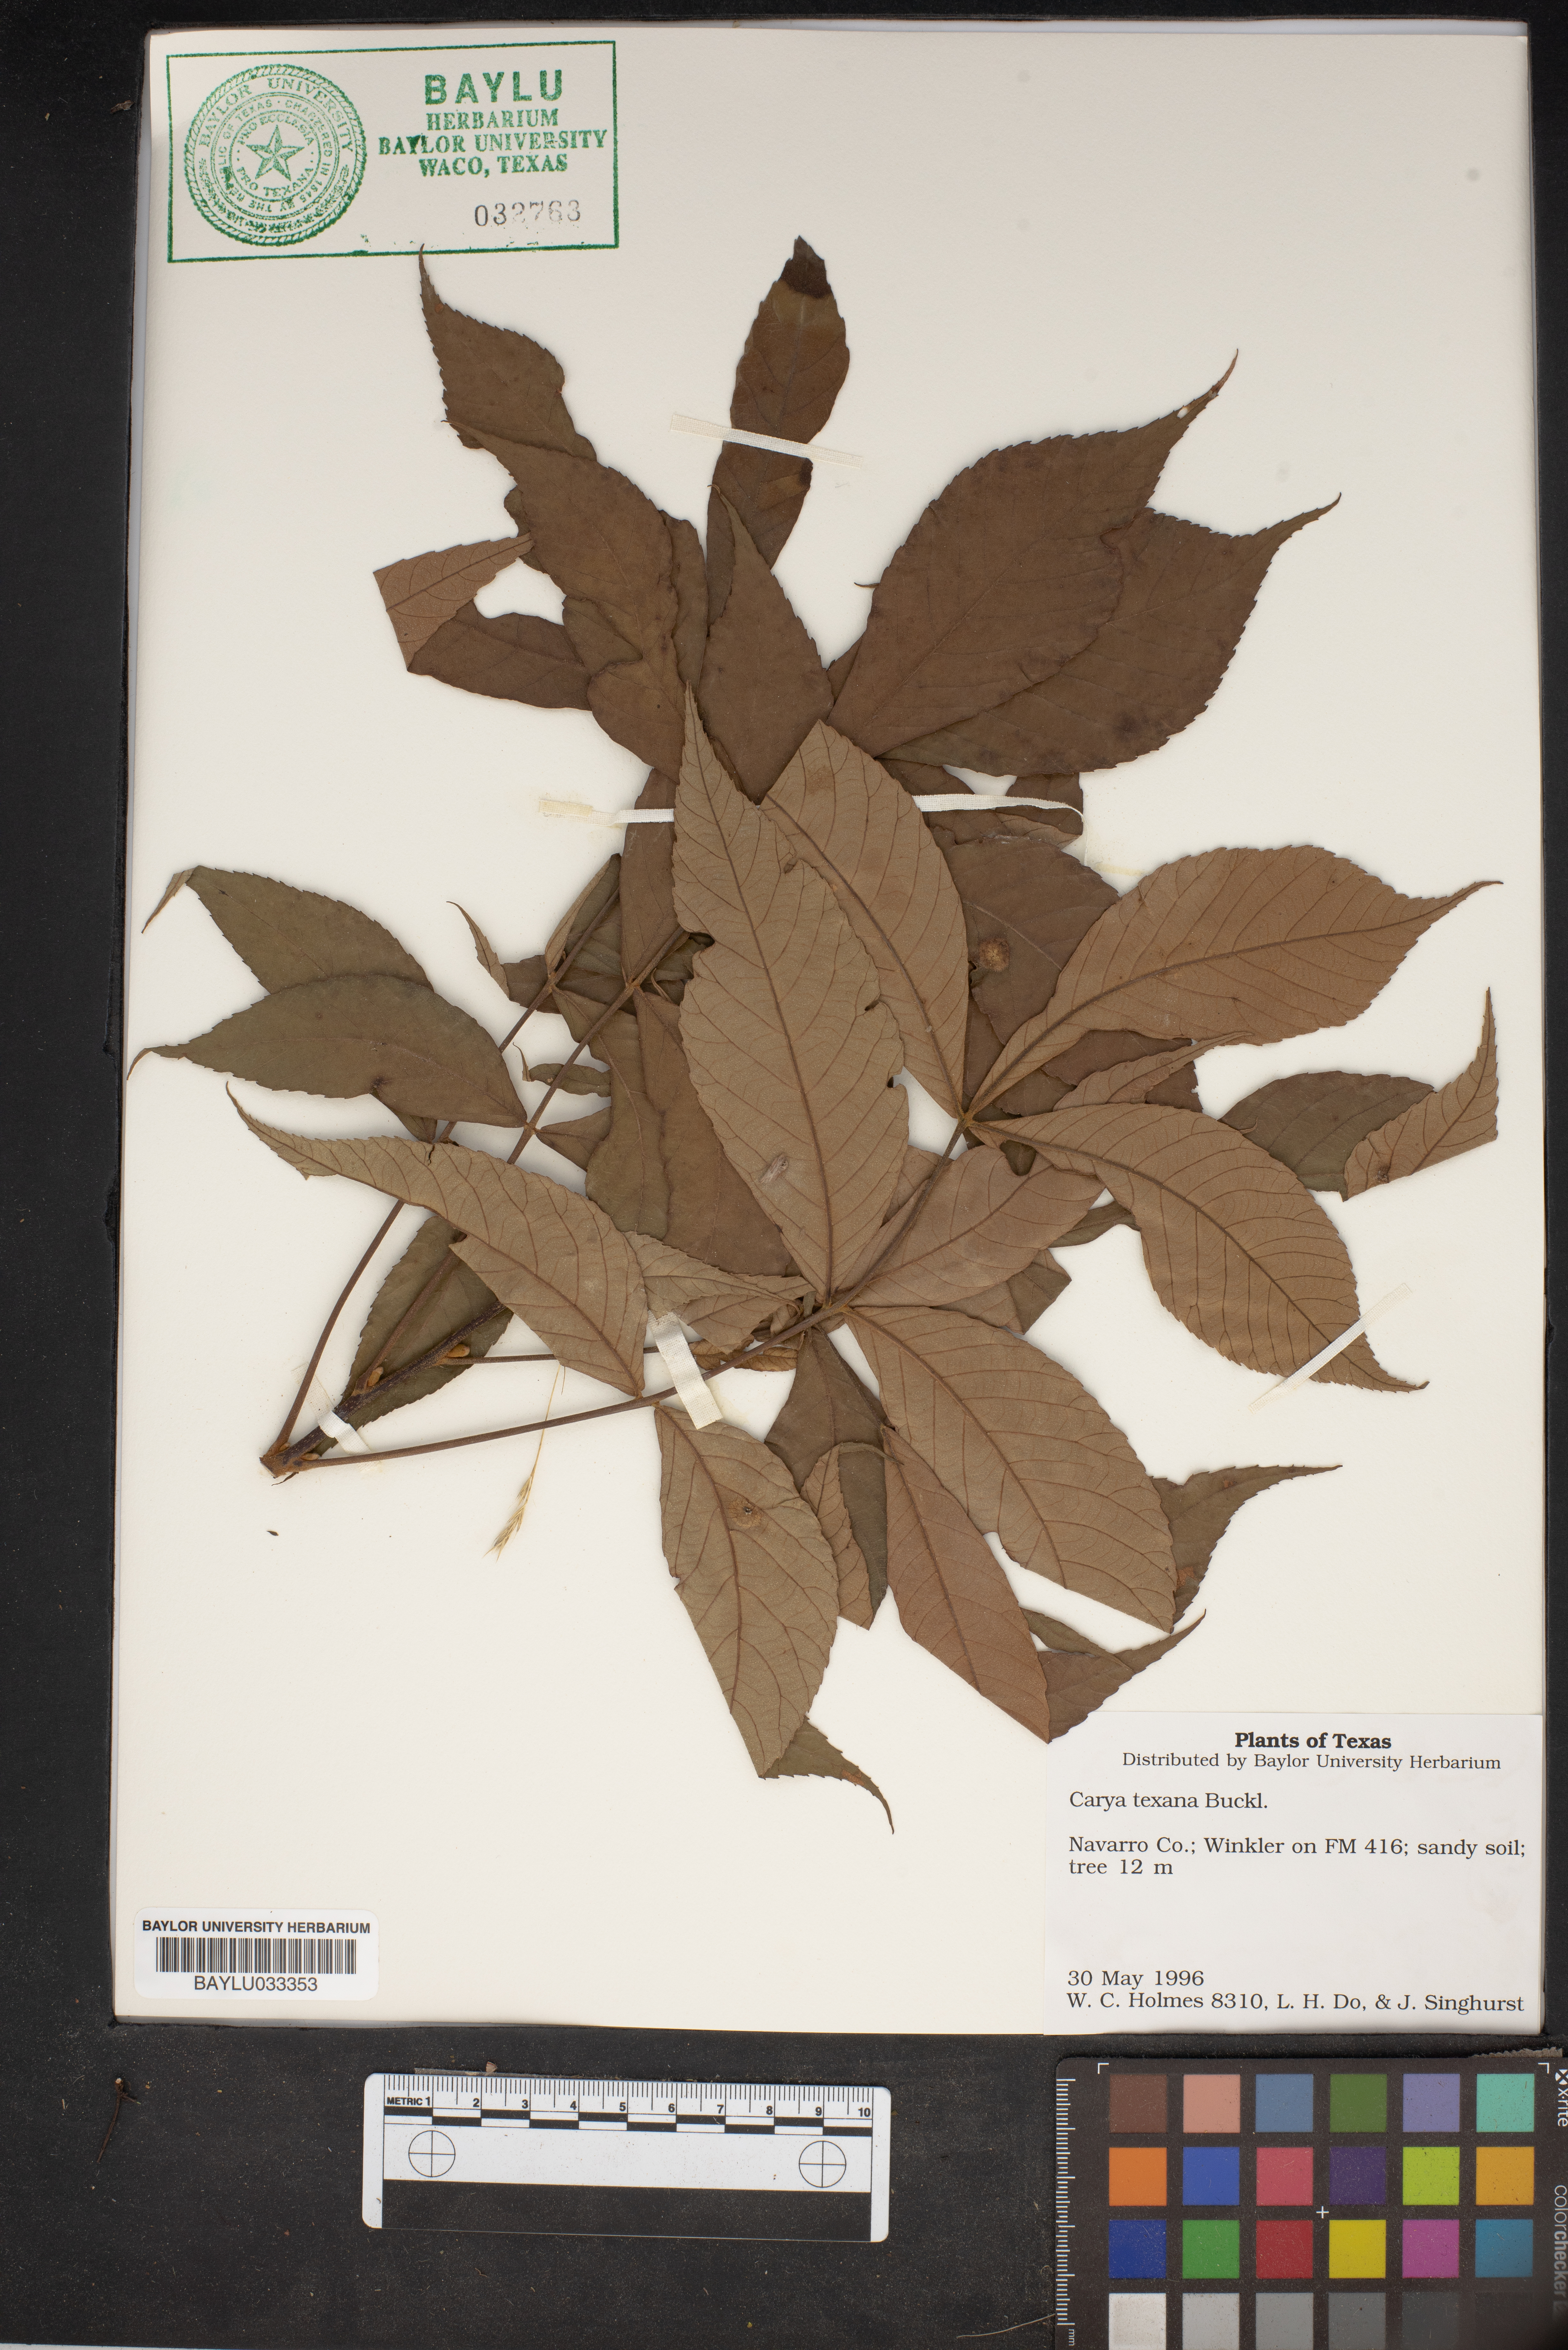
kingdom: Plantae
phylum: Tracheophyta
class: Magnoliopsida
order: Fagales
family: Juglandaceae
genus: Carya
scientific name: Carya texana
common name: Black hickory
